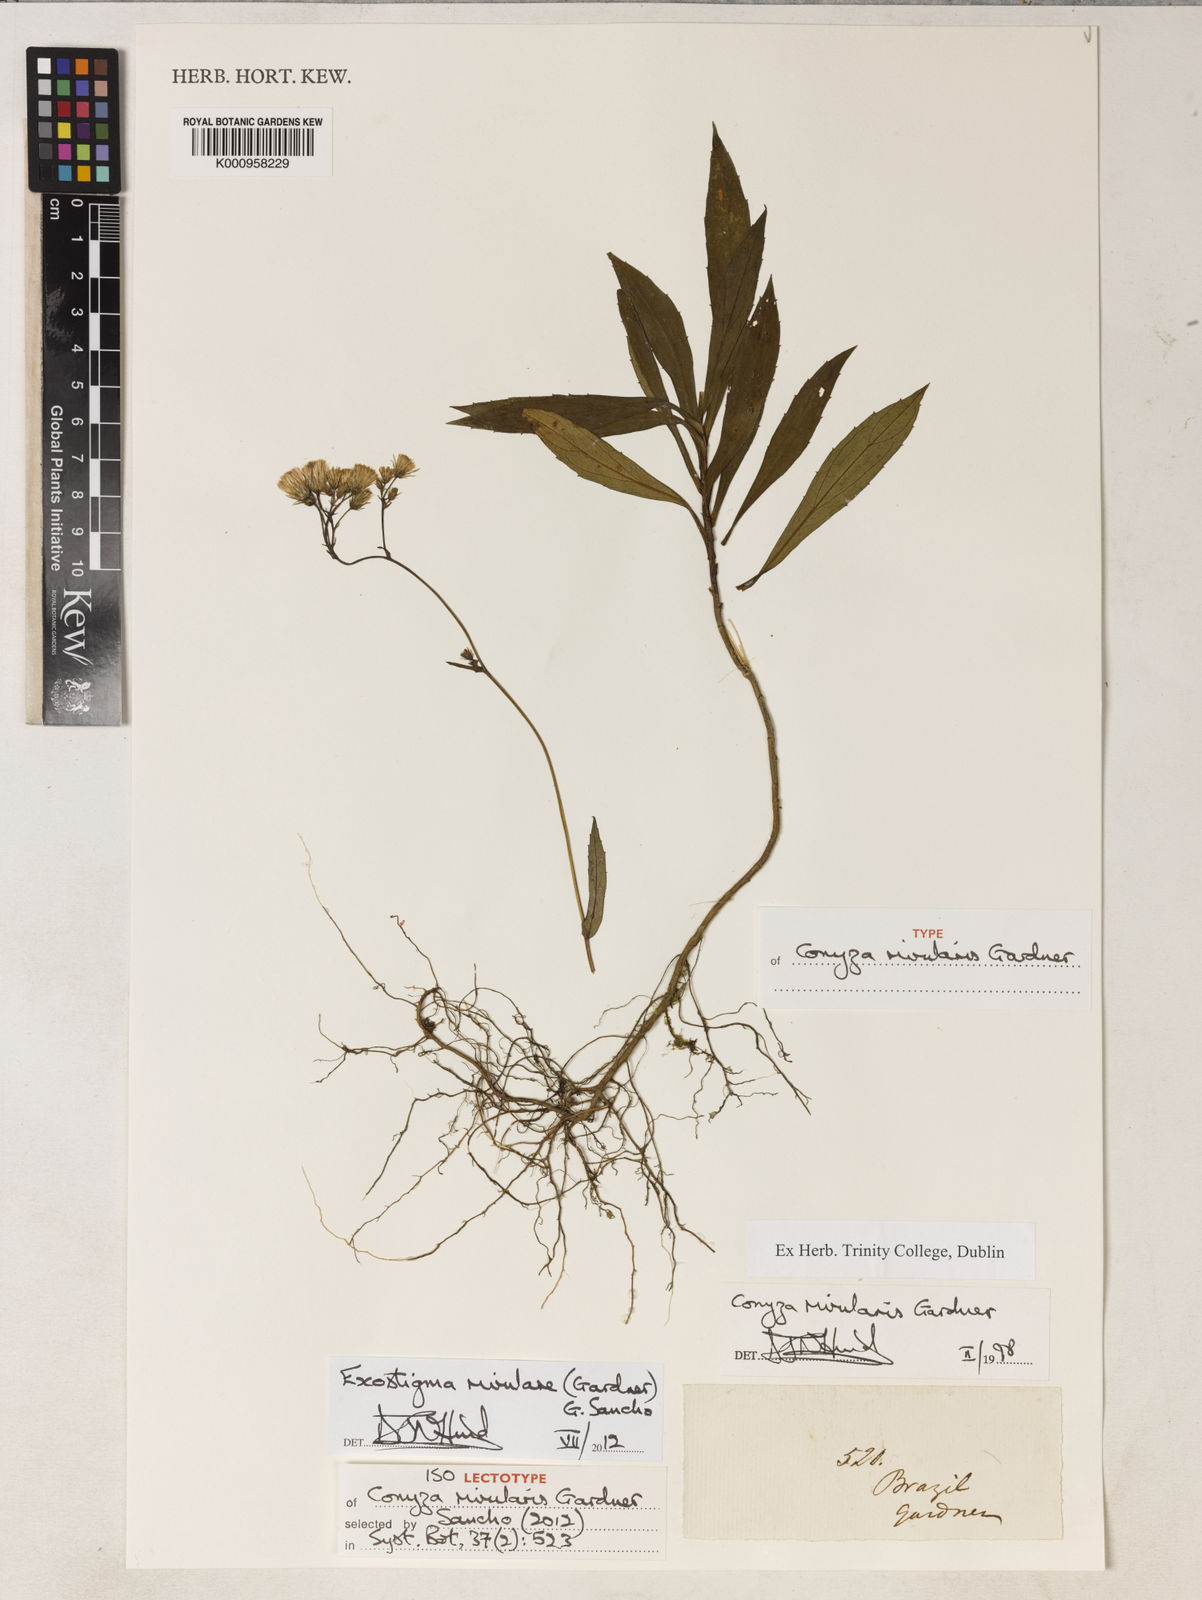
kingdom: Plantae
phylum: Tracheophyta
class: Magnoliopsida
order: Asterales
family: Asteraceae
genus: Exostigma
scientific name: Exostigma rivulare
